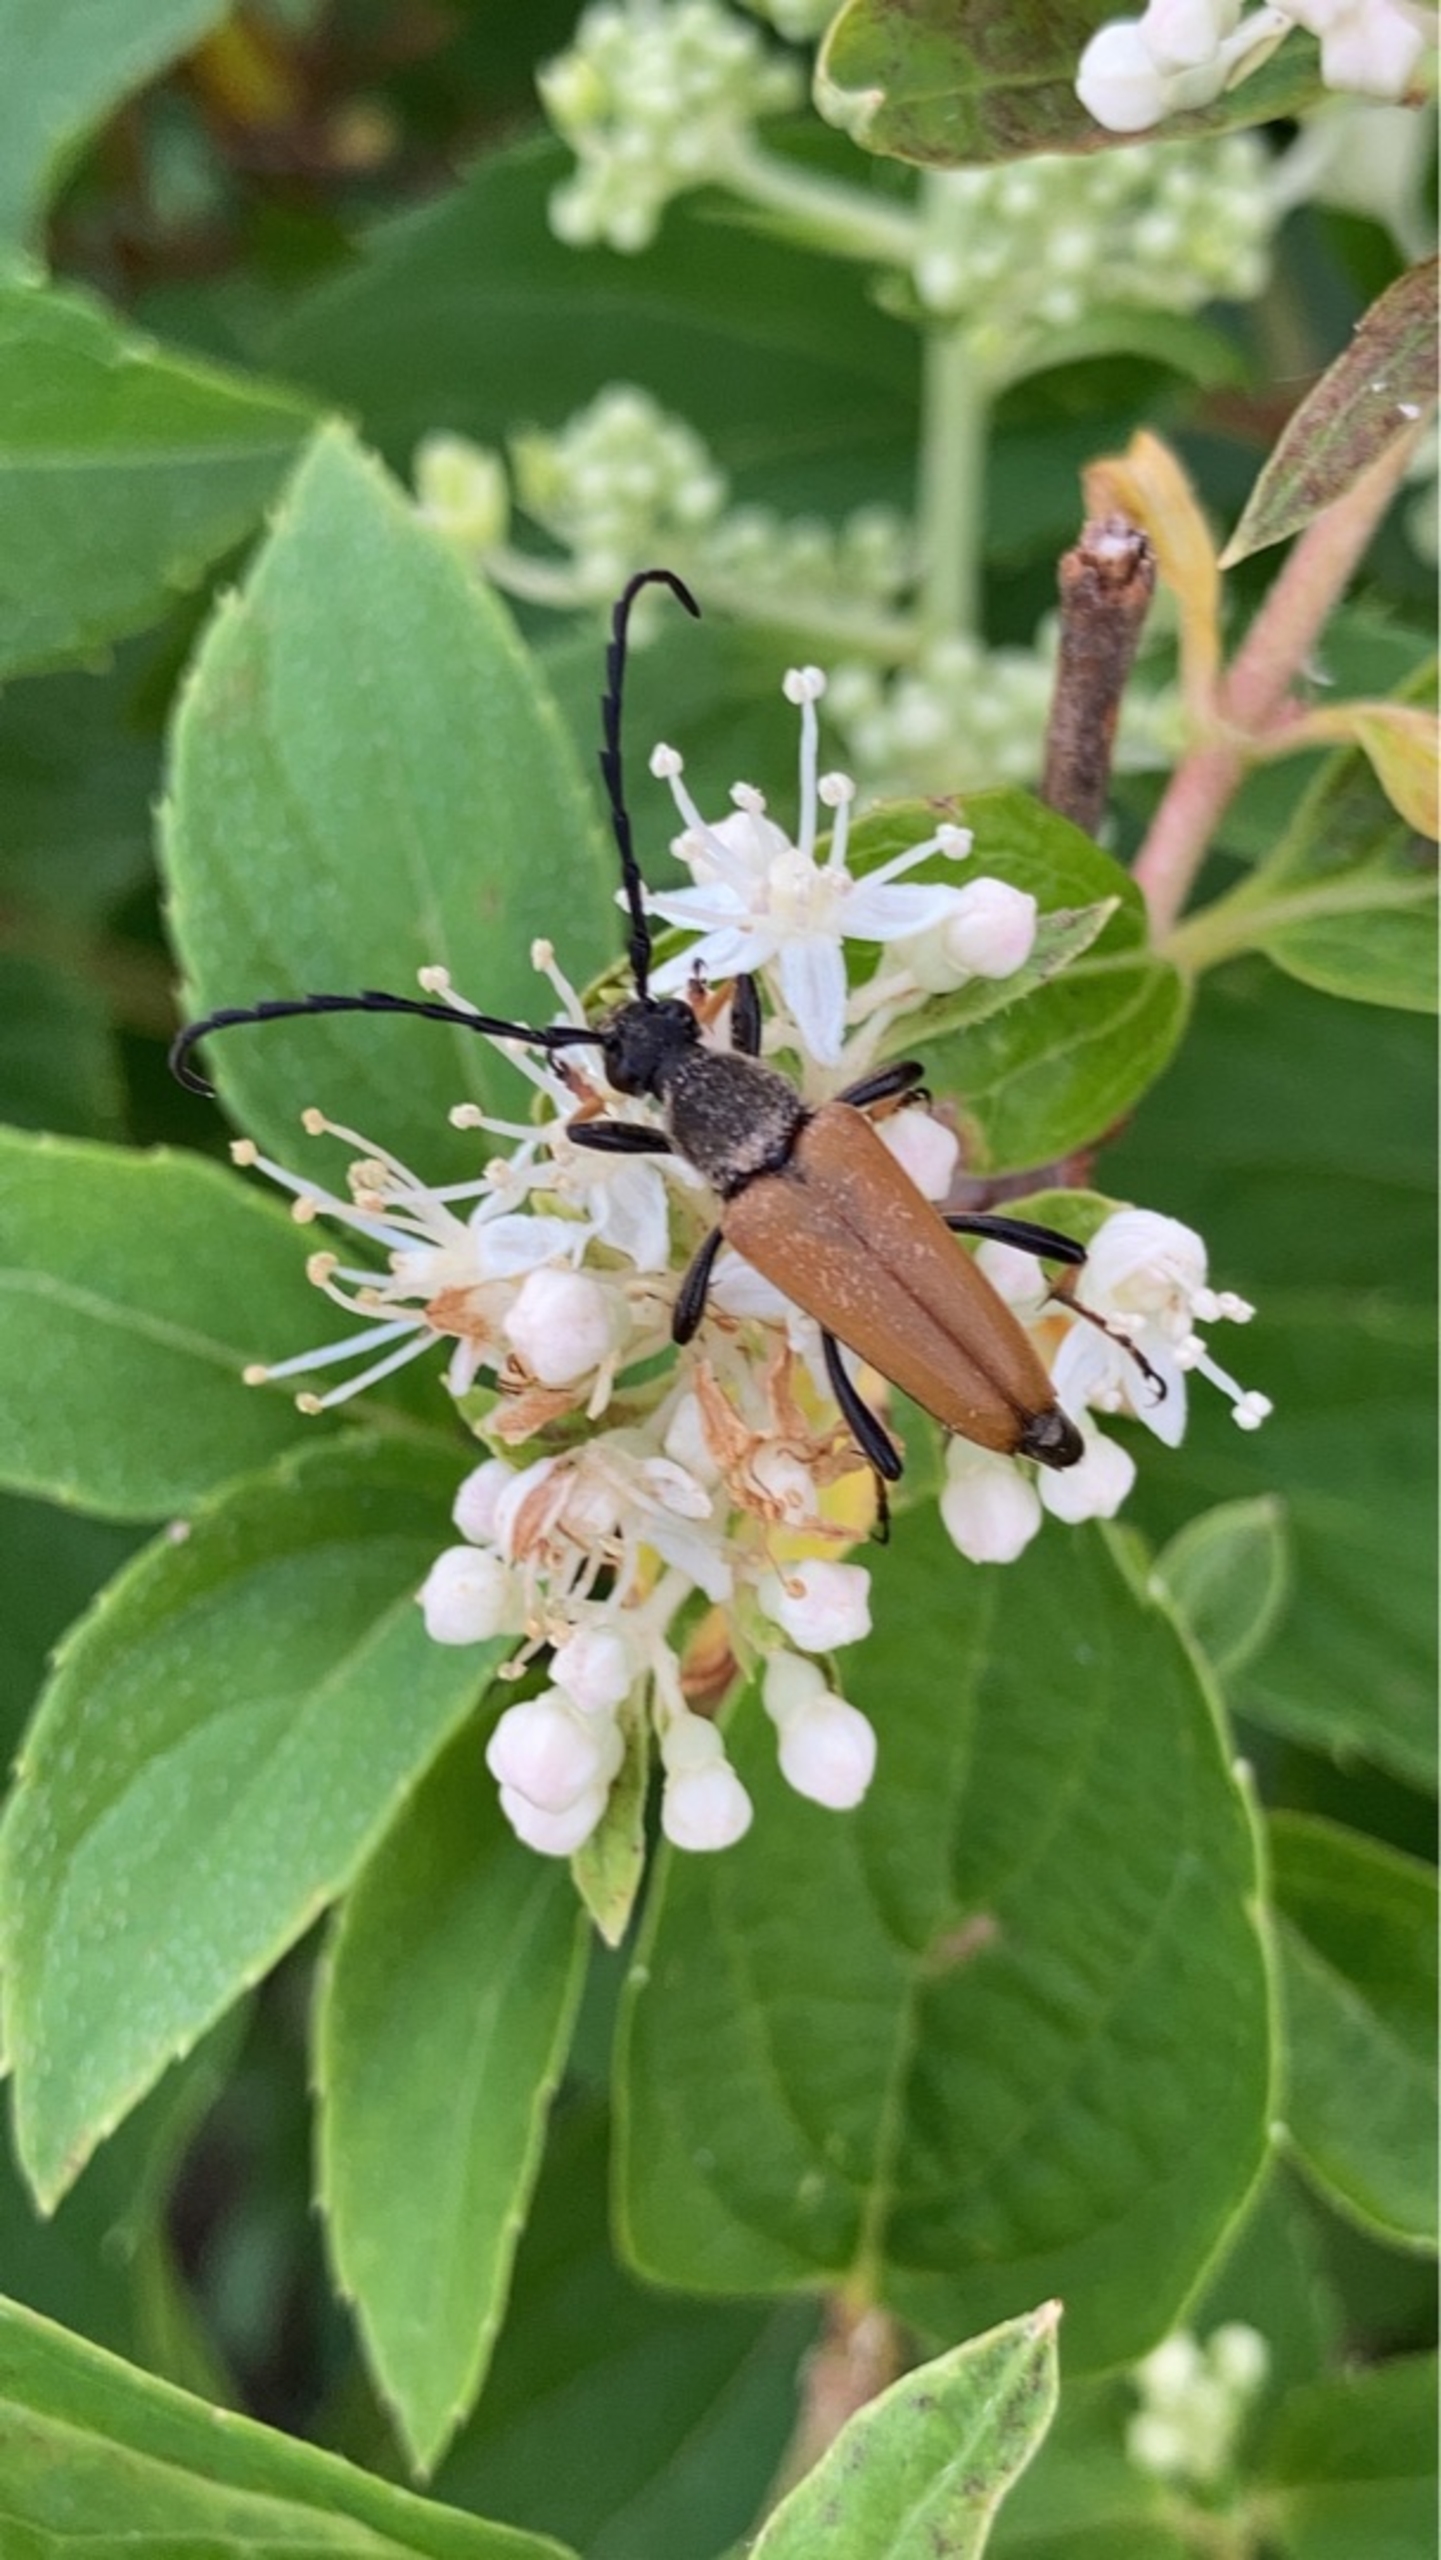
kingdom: Animalia
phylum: Arthropoda
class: Insecta
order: Coleoptera
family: Cerambycidae
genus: Stictoleptura
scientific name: Stictoleptura rubra
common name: Rød blomsterbuk
